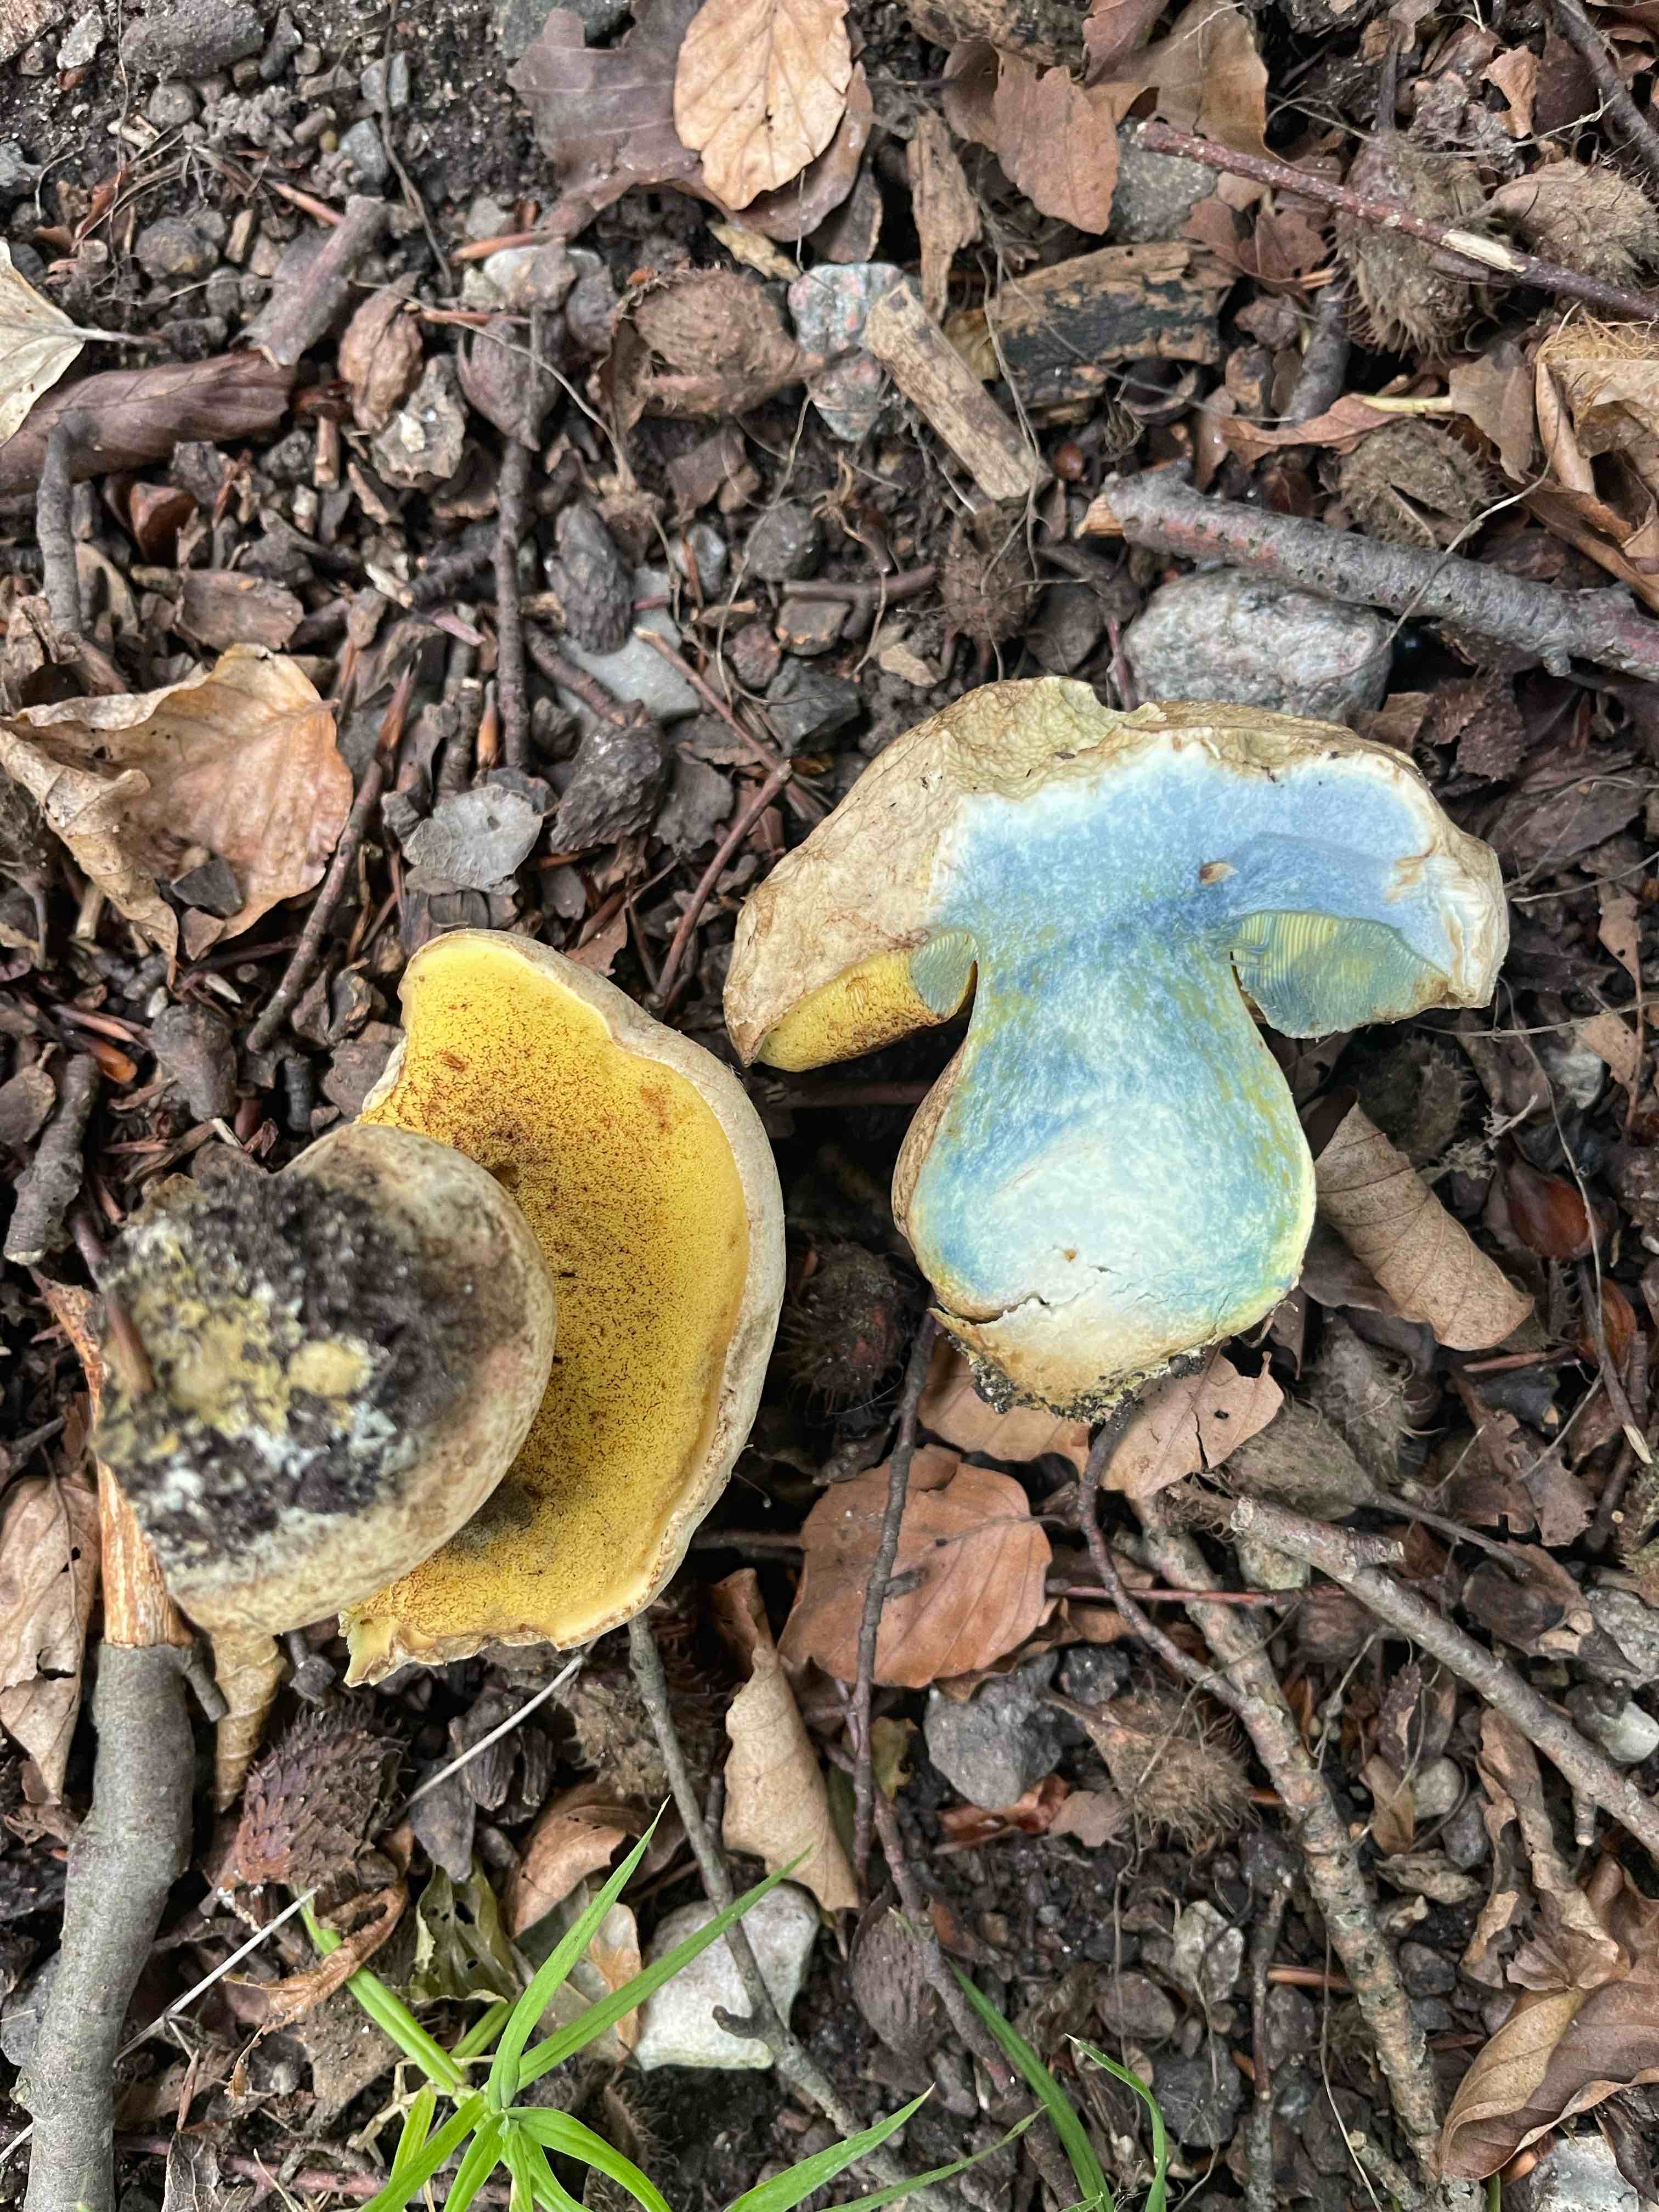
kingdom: Fungi
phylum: Basidiomycota
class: Agaricomycetes
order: Boletales
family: Boletaceae
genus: Caloboletus
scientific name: Caloboletus radicans
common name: rod-rørhat
